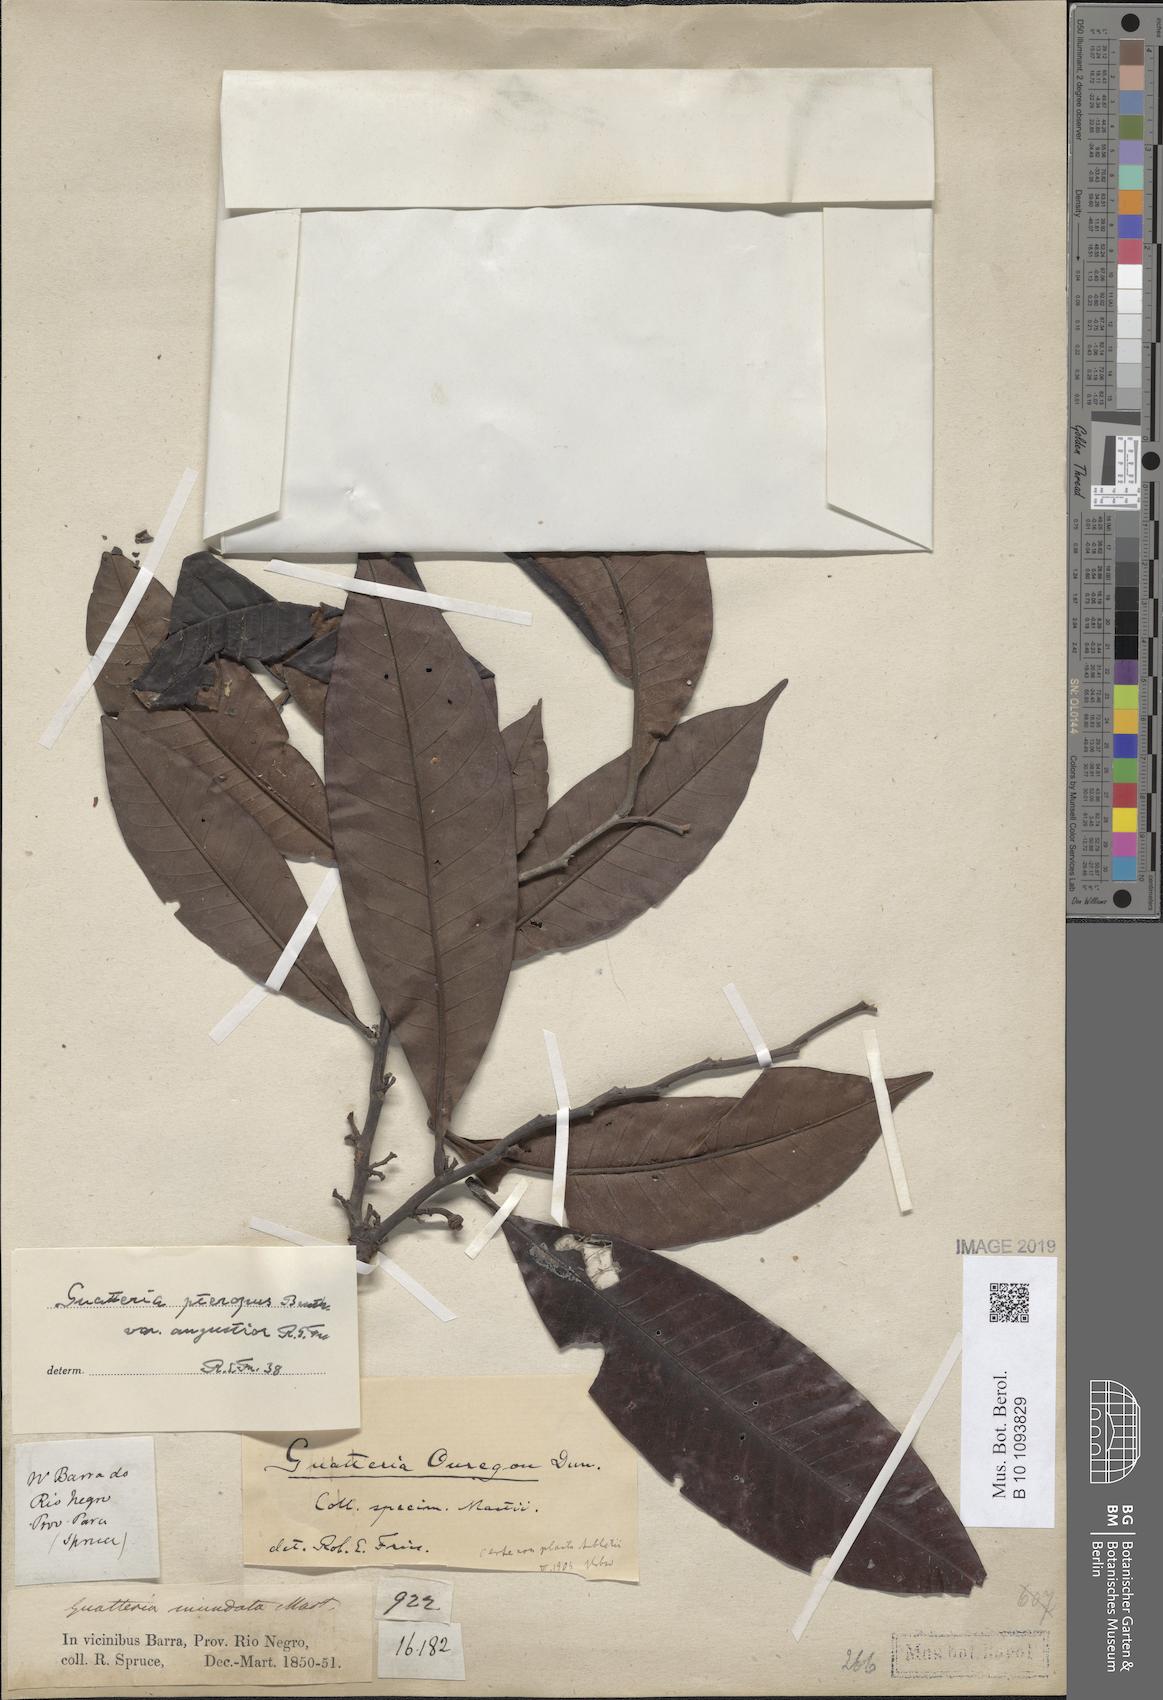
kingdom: Plantae
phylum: Tracheophyta
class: Magnoliopsida
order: Magnoliales
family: Annonaceae
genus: Guatteria
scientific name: Guatteria punctata
